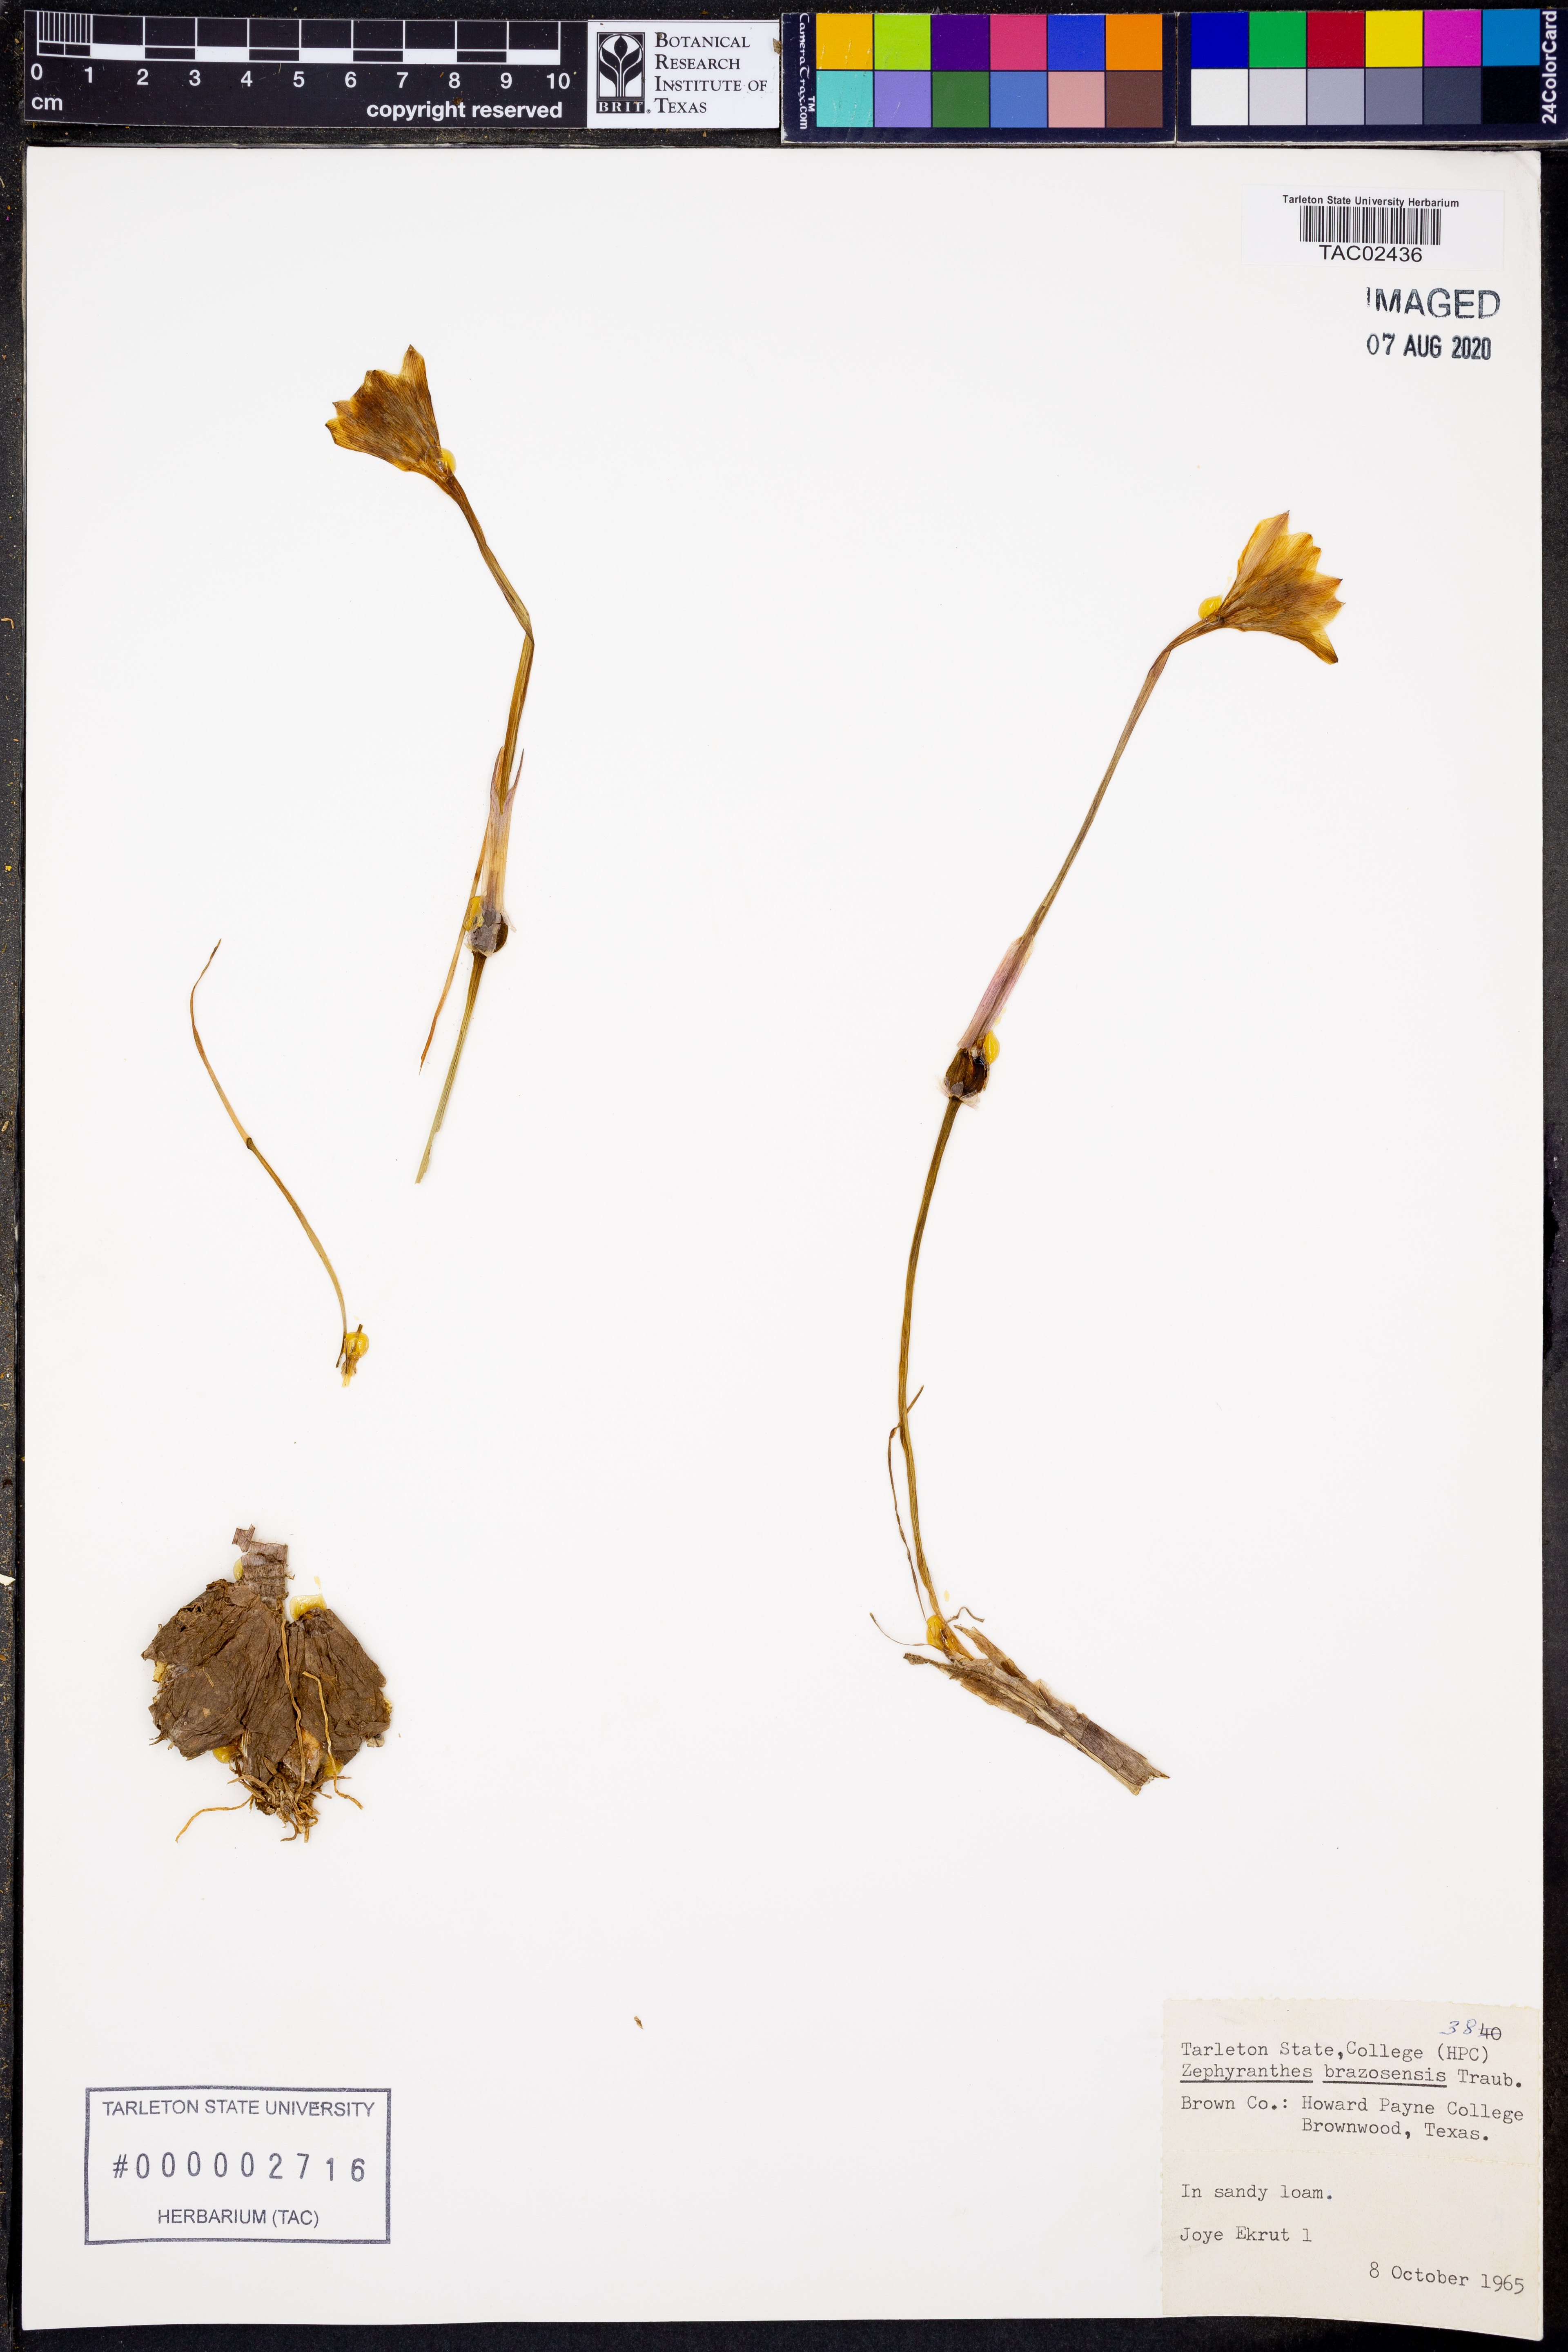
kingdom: Plantae
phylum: Tracheophyta
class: Liliopsida
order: Asparagales
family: Amaryllidaceae
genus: Zephyranthes
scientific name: Zephyranthes chlorosolen
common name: Evening rain-lily
